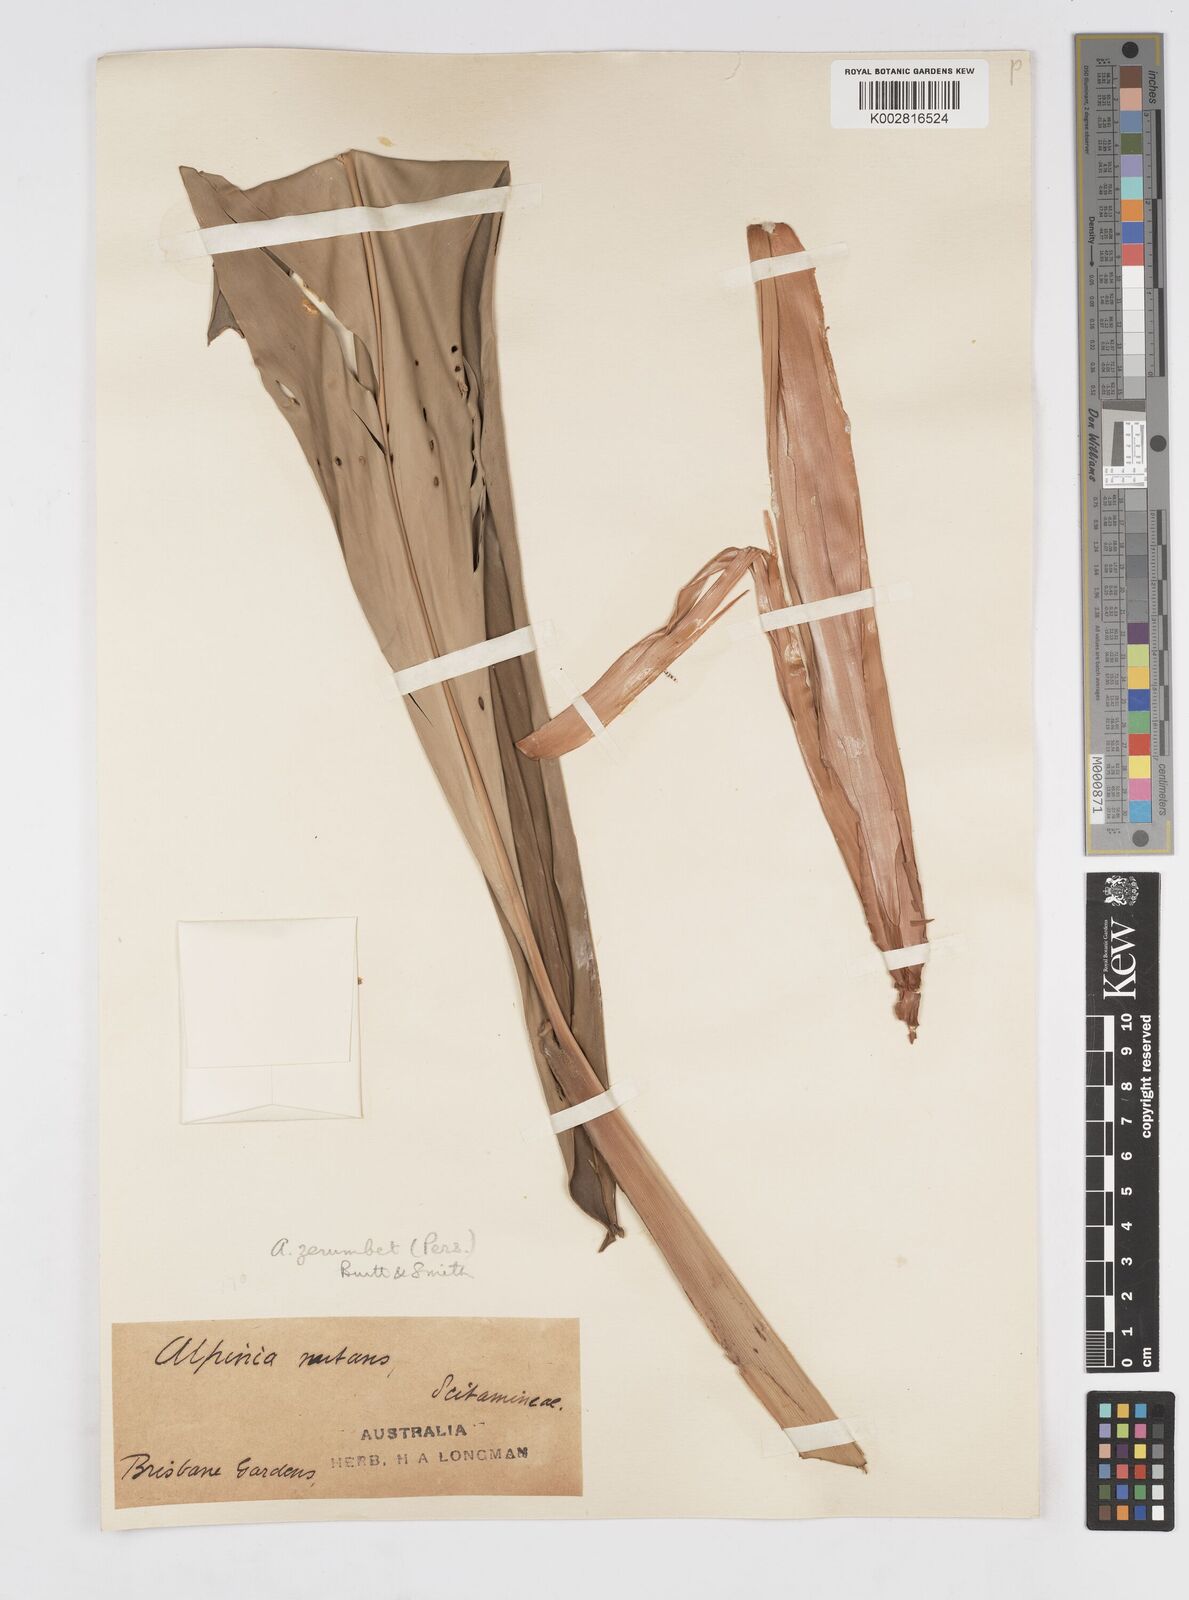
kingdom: Plantae
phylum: Tracheophyta
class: Liliopsida
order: Zingiberales
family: Zingiberaceae
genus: Alpinia
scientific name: Alpinia zerumbet
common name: Shellplant
